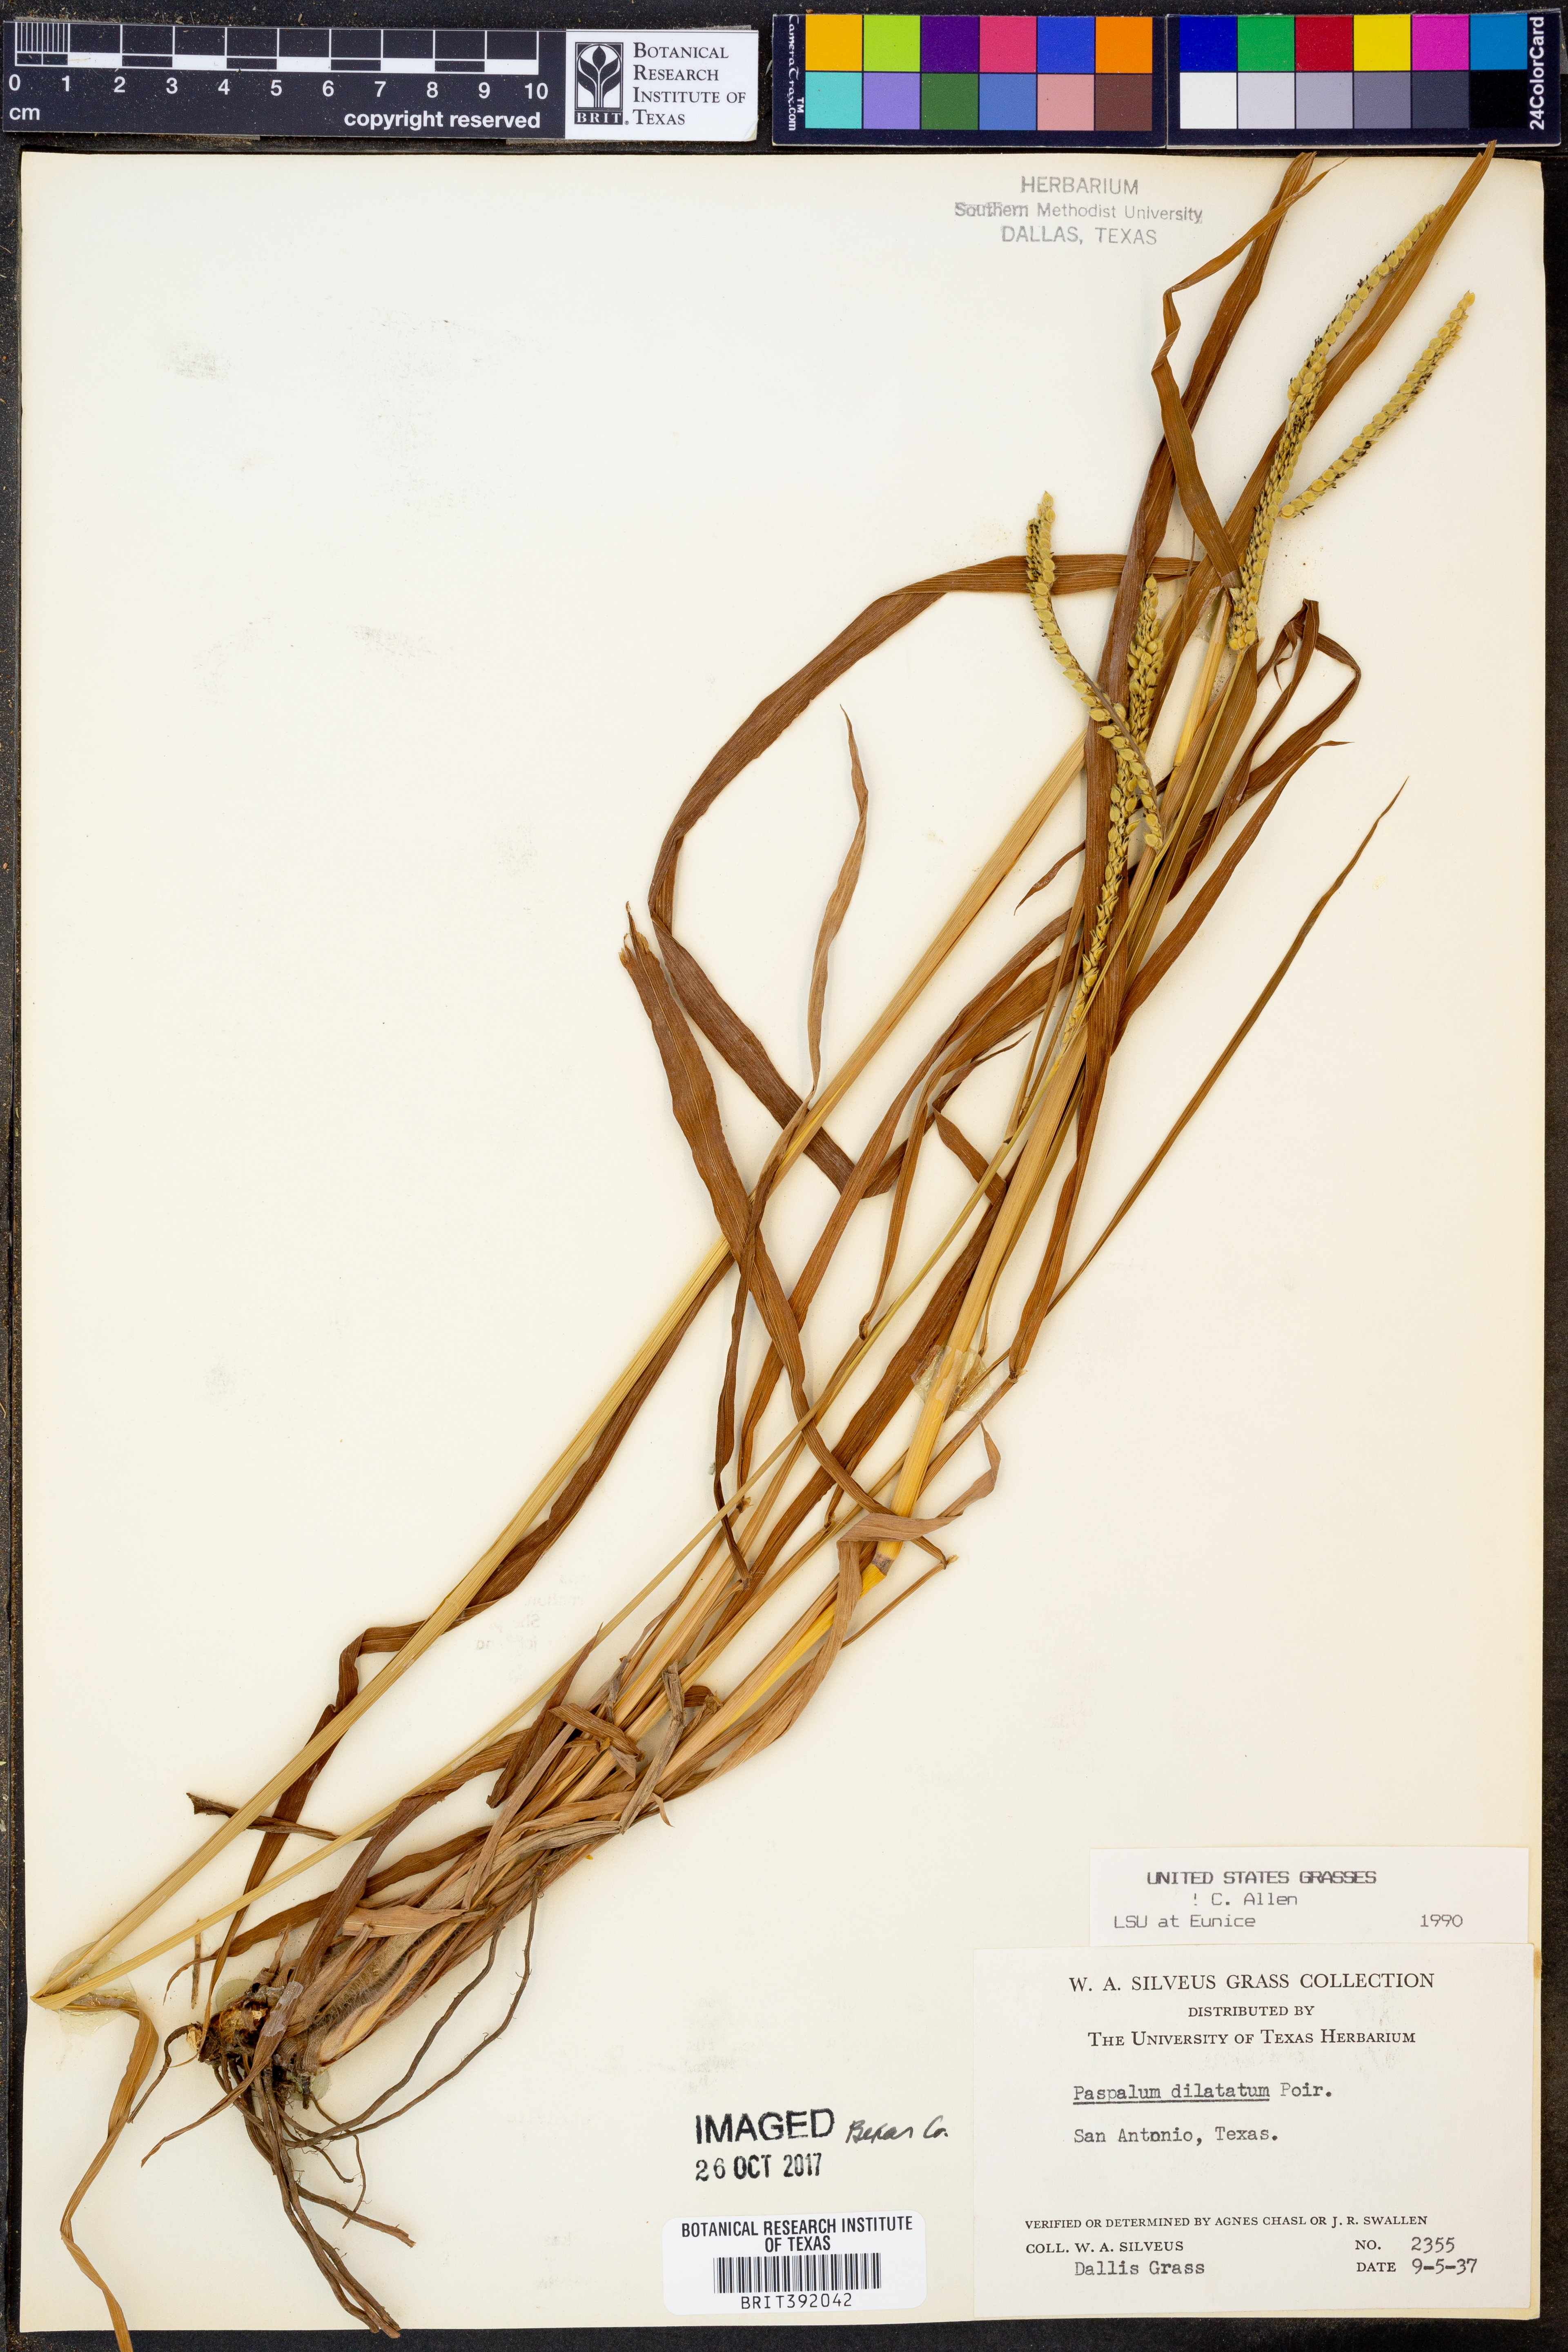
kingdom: Plantae
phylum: Tracheophyta
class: Liliopsida
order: Poales
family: Poaceae
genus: Paspalum
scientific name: Paspalum dilatatum
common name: Dallisgrass
